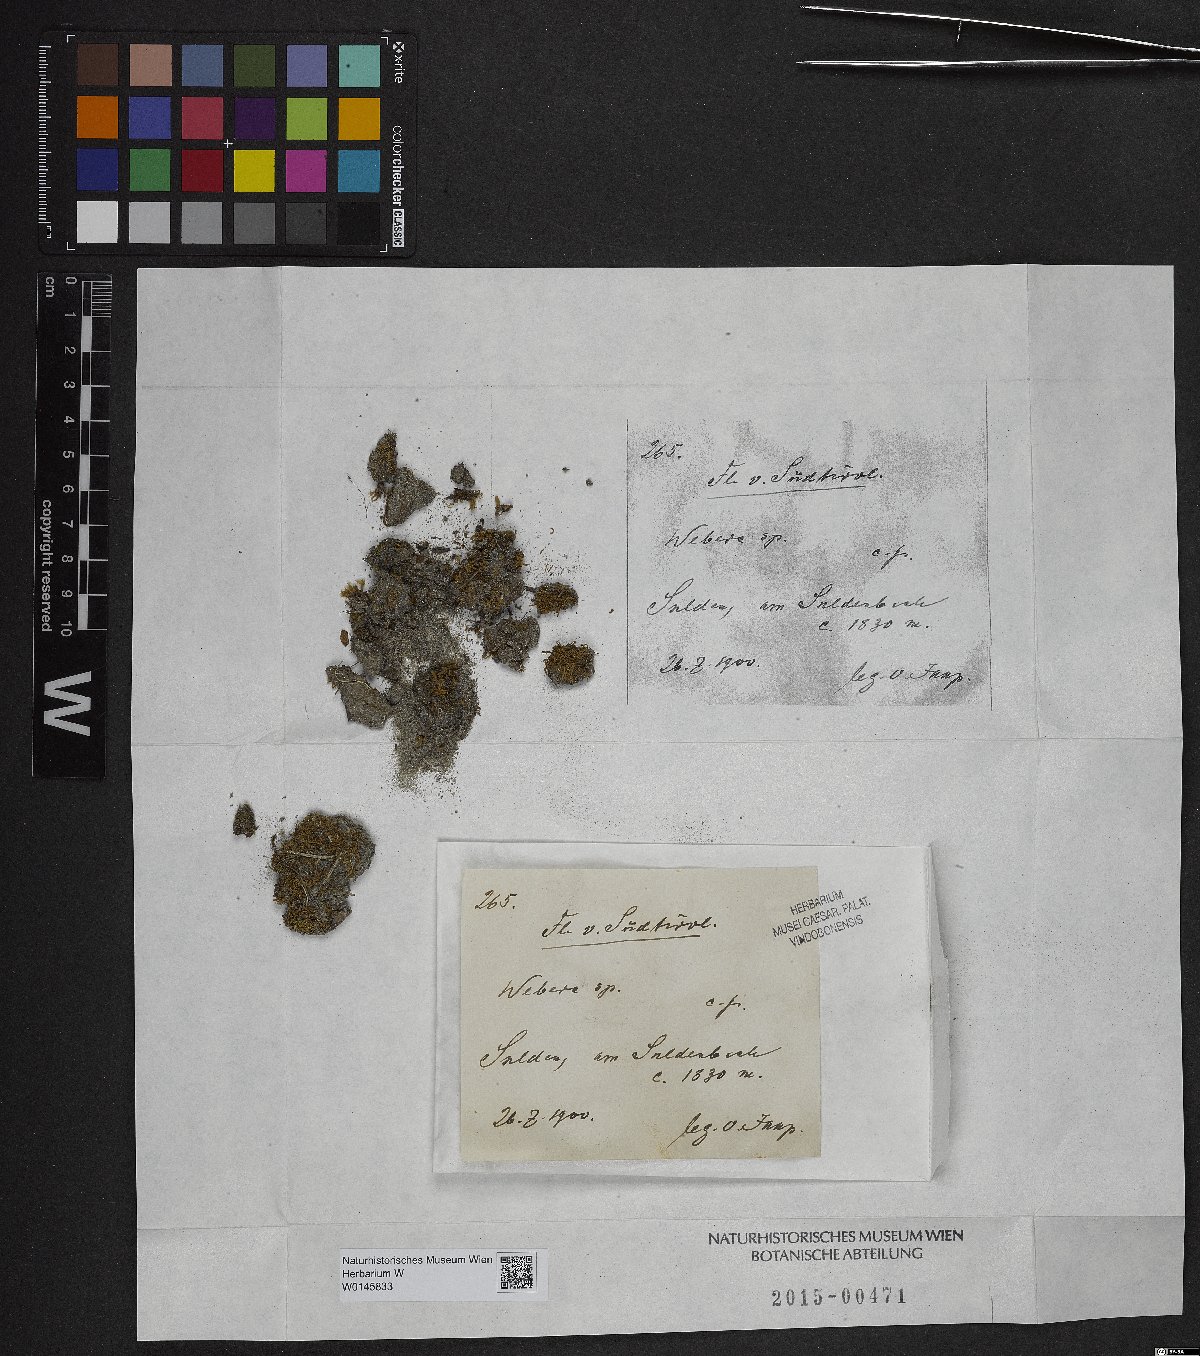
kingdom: Plantae
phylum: Tracheophyta
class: Magnoliopsida
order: Gentianales
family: Rubiaceae
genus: Webera
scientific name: Webera
